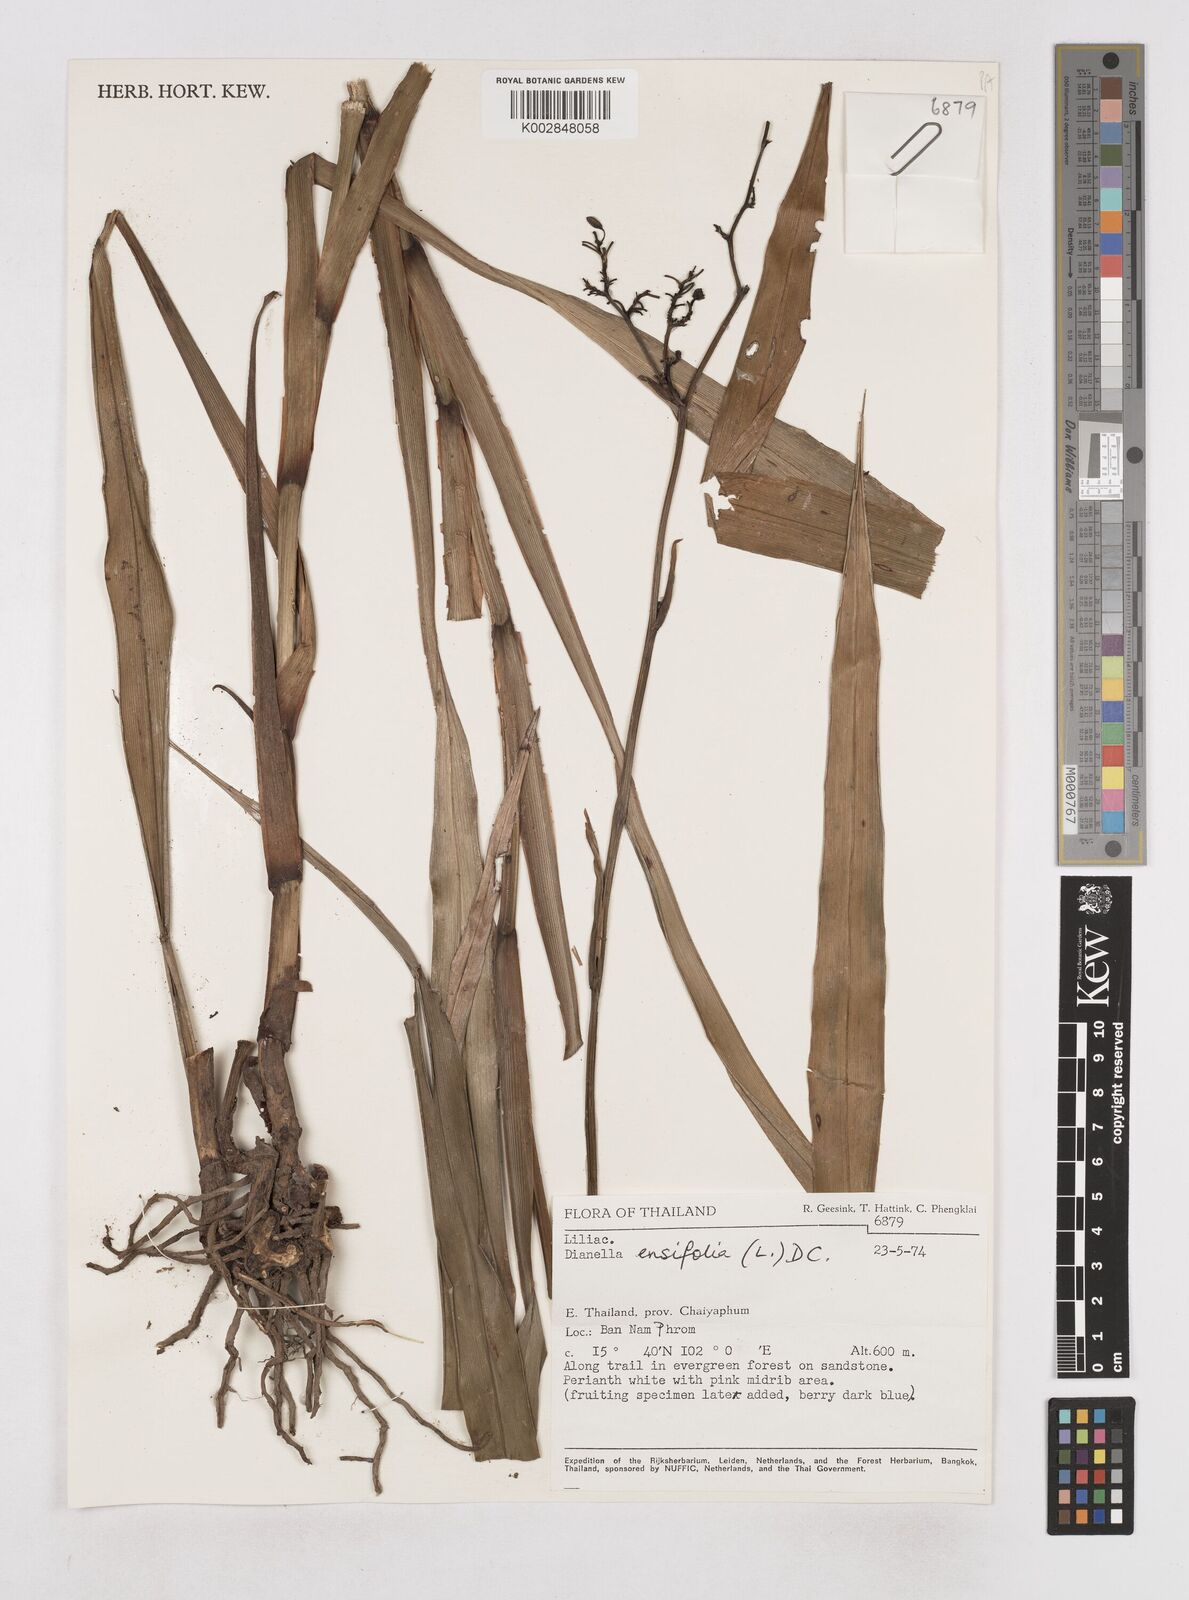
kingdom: Plantae
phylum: Tracheophyta
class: Liliopsida
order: Asparagales
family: Asphodelaceae
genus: Dianella
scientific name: Dianella ensifolia
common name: New zealand lilyplant
